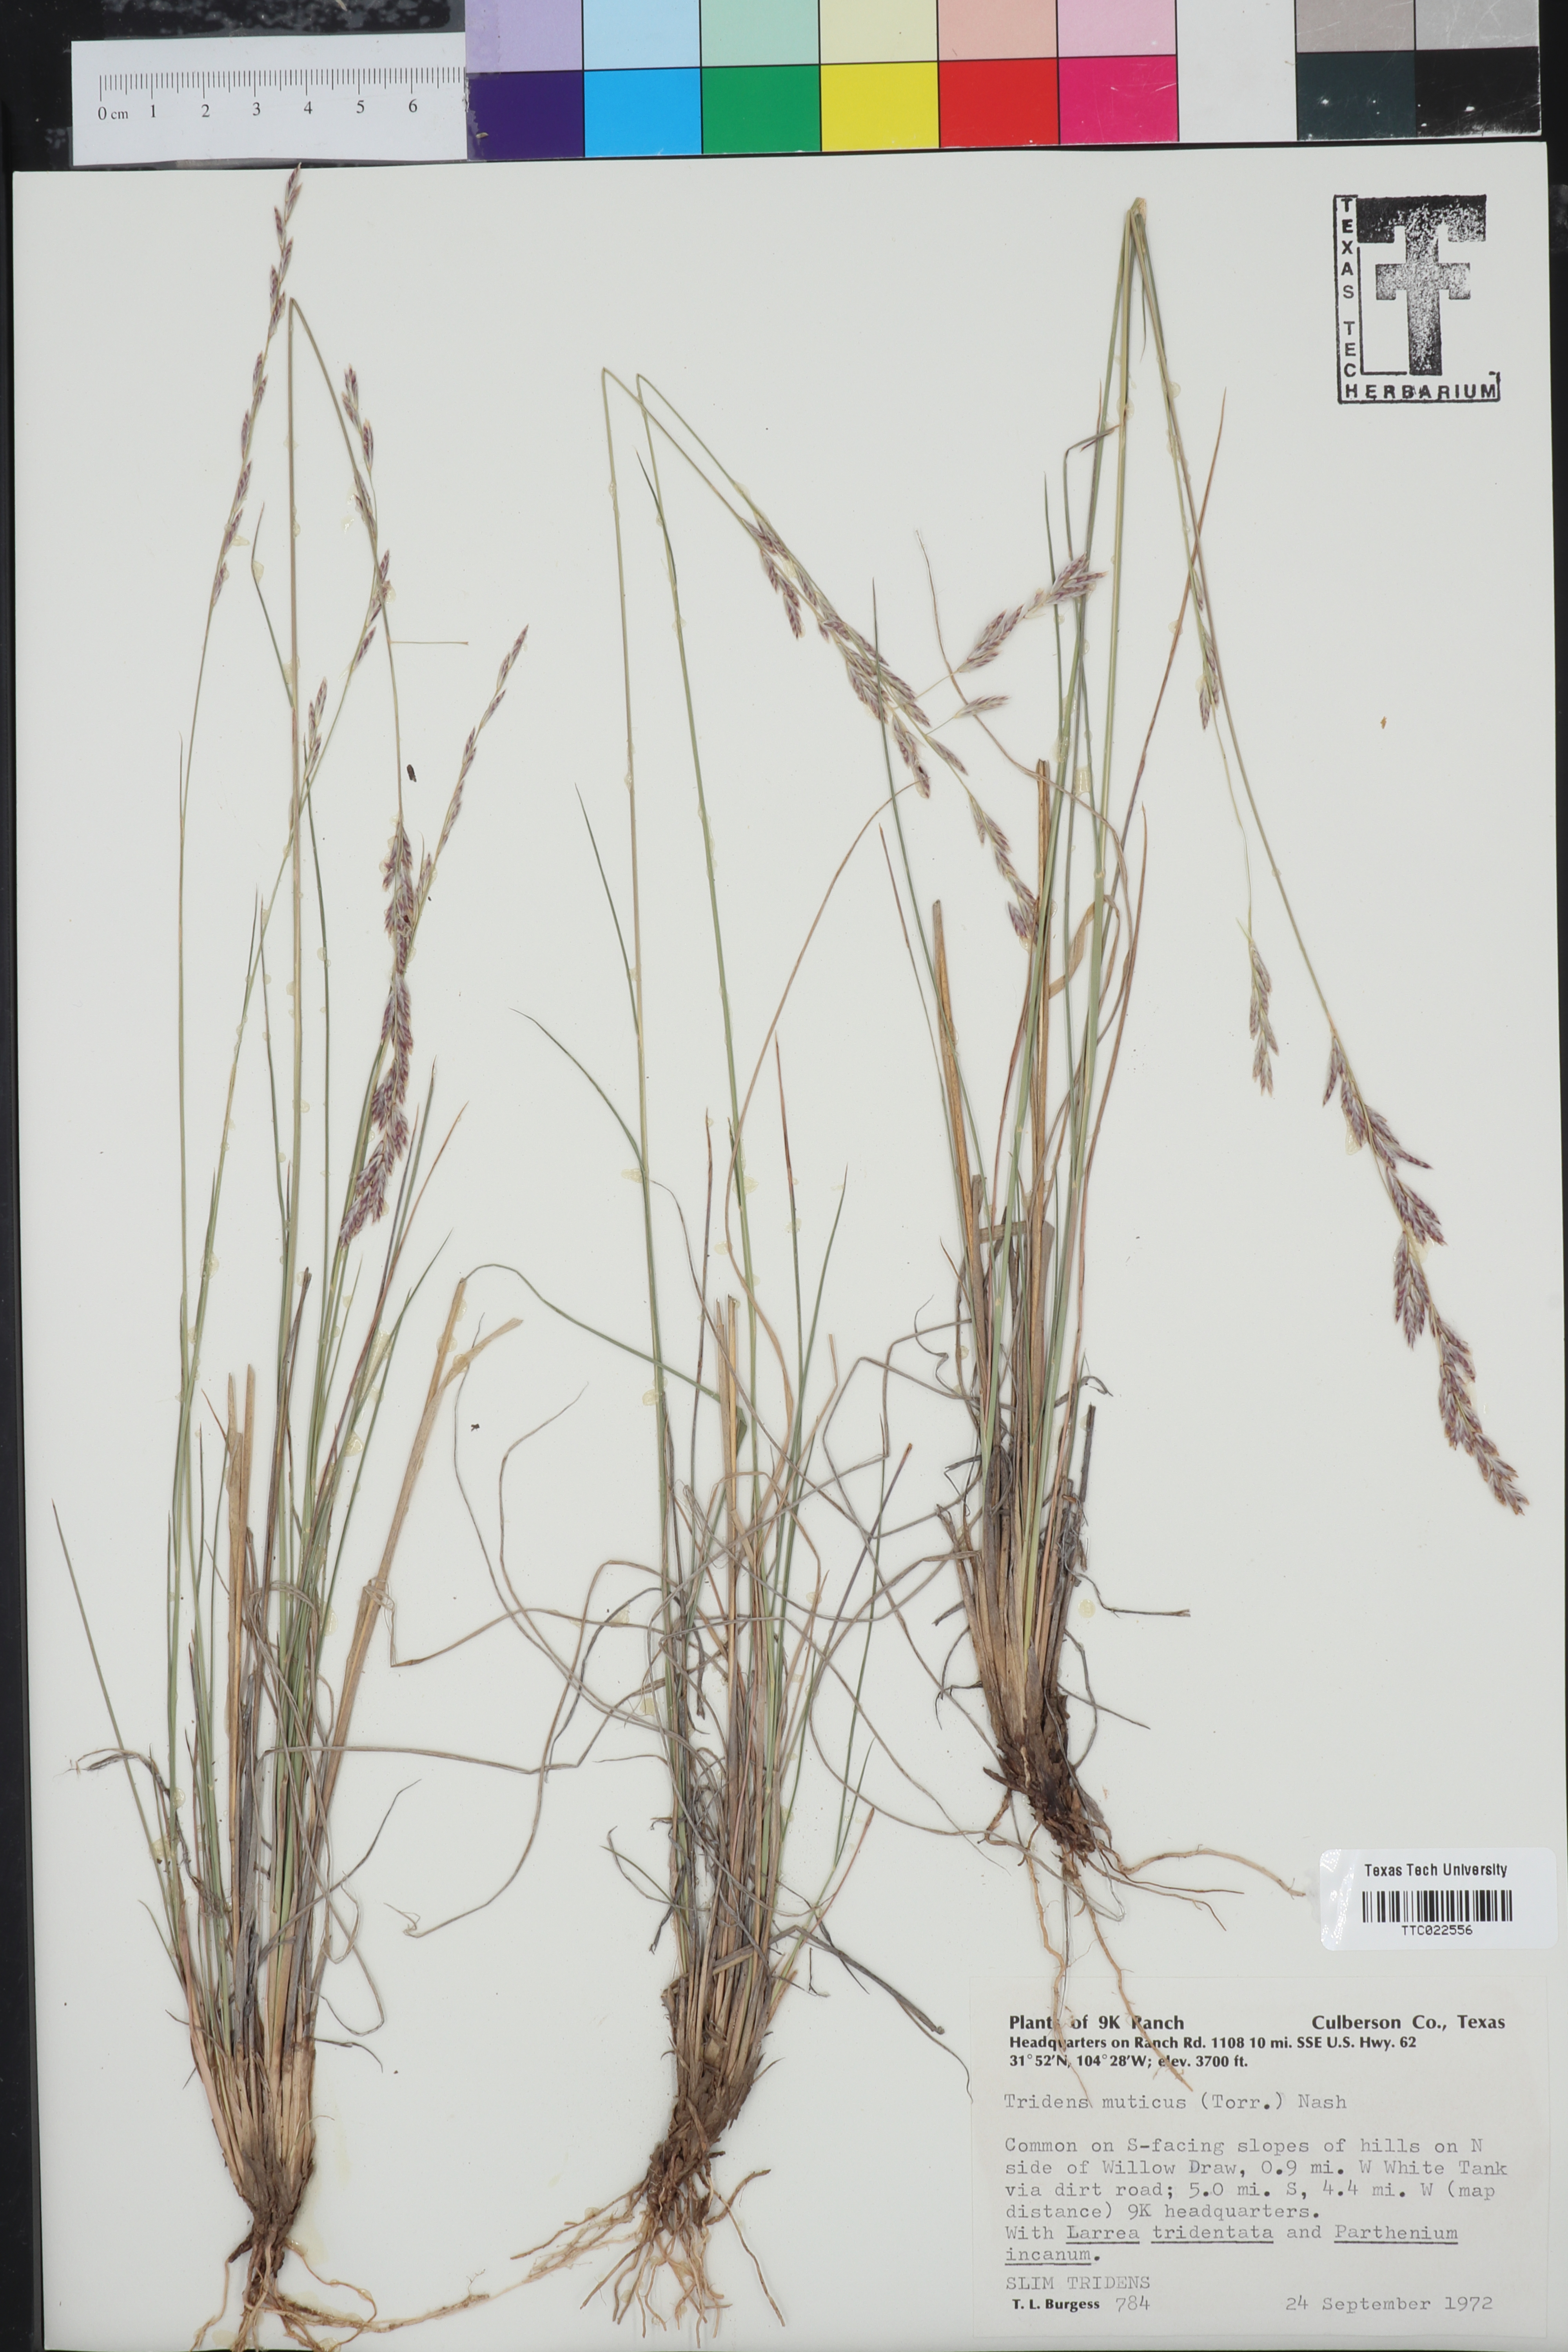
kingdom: Plantae
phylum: Tracheophyta
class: Liliopsida
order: Poales
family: Poaceae
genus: Tridentopsis
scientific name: Tridentopsis mutica
